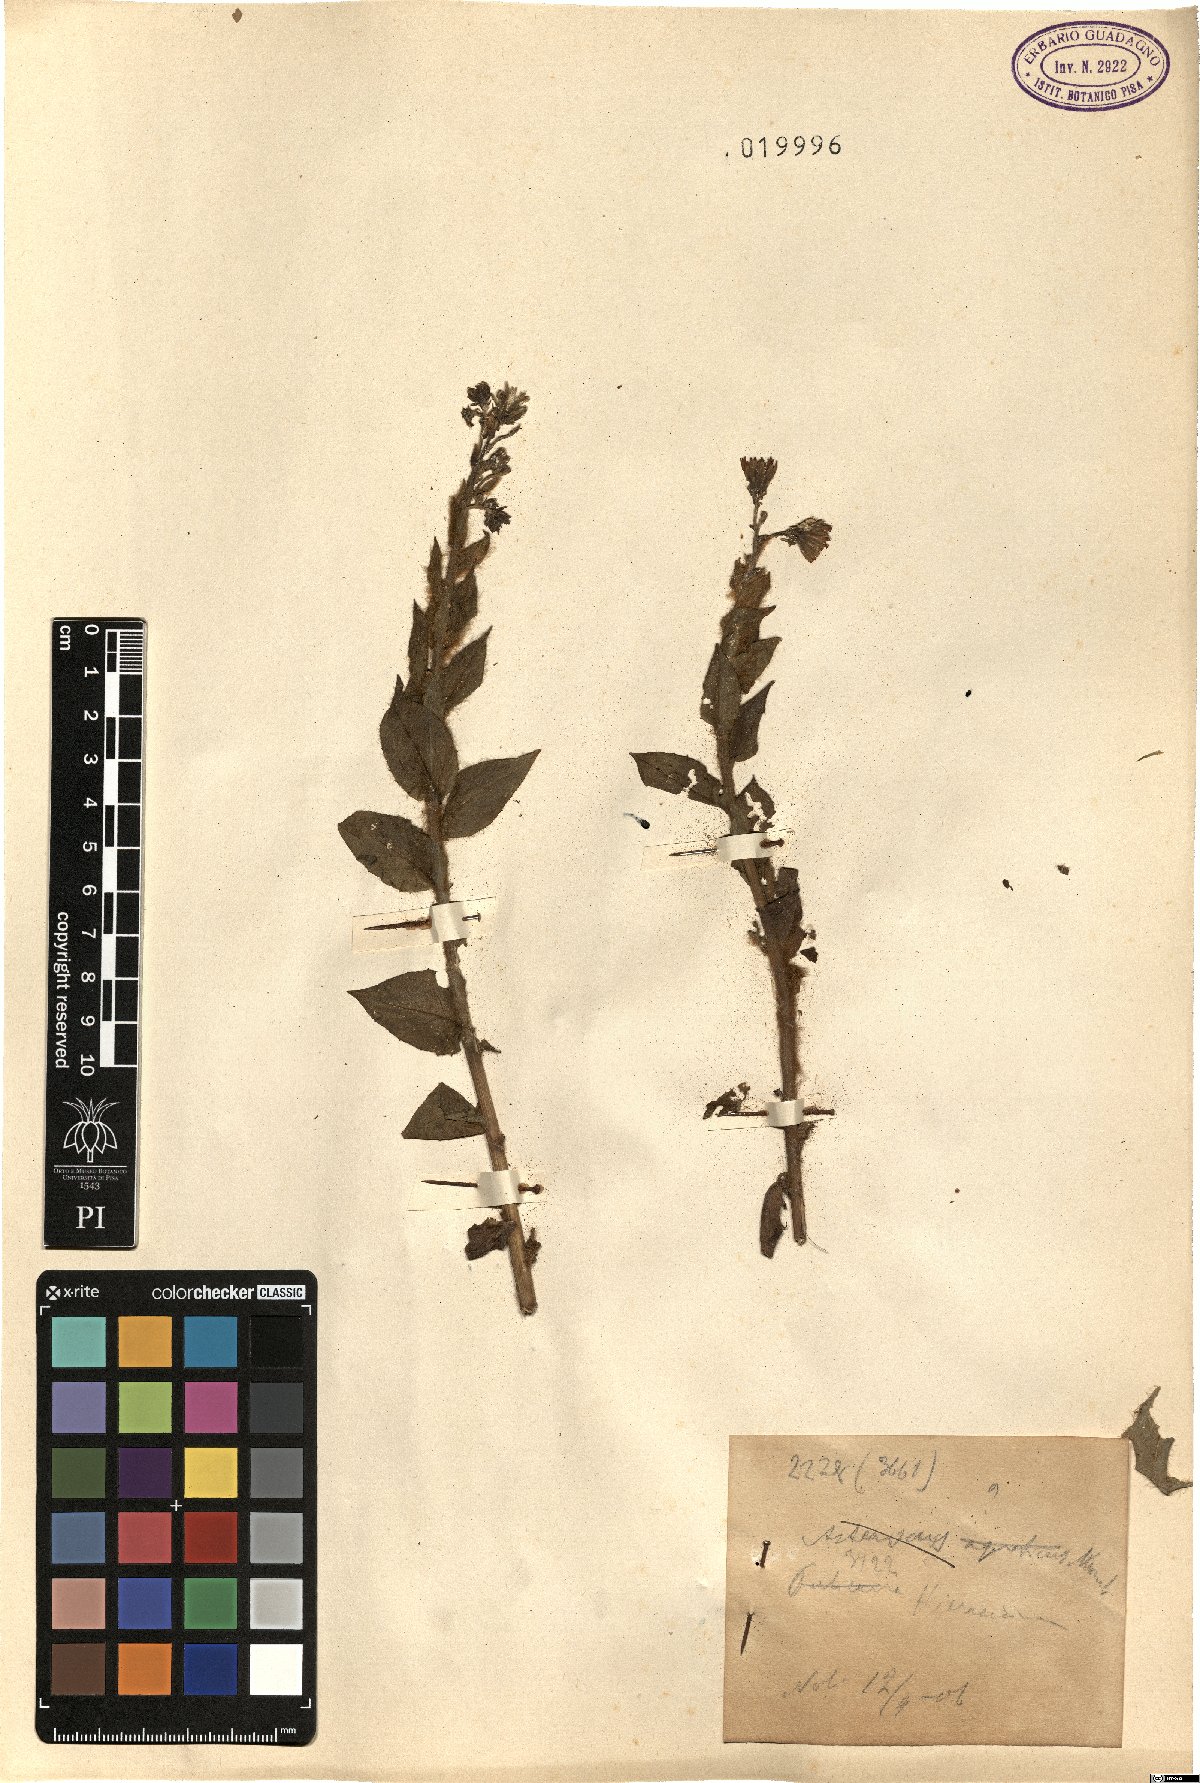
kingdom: Plantae
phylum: Tracheophyta
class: Magnoliopsida
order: Asterales
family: Asteraceae
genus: Hieracium
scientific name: Hieracium
